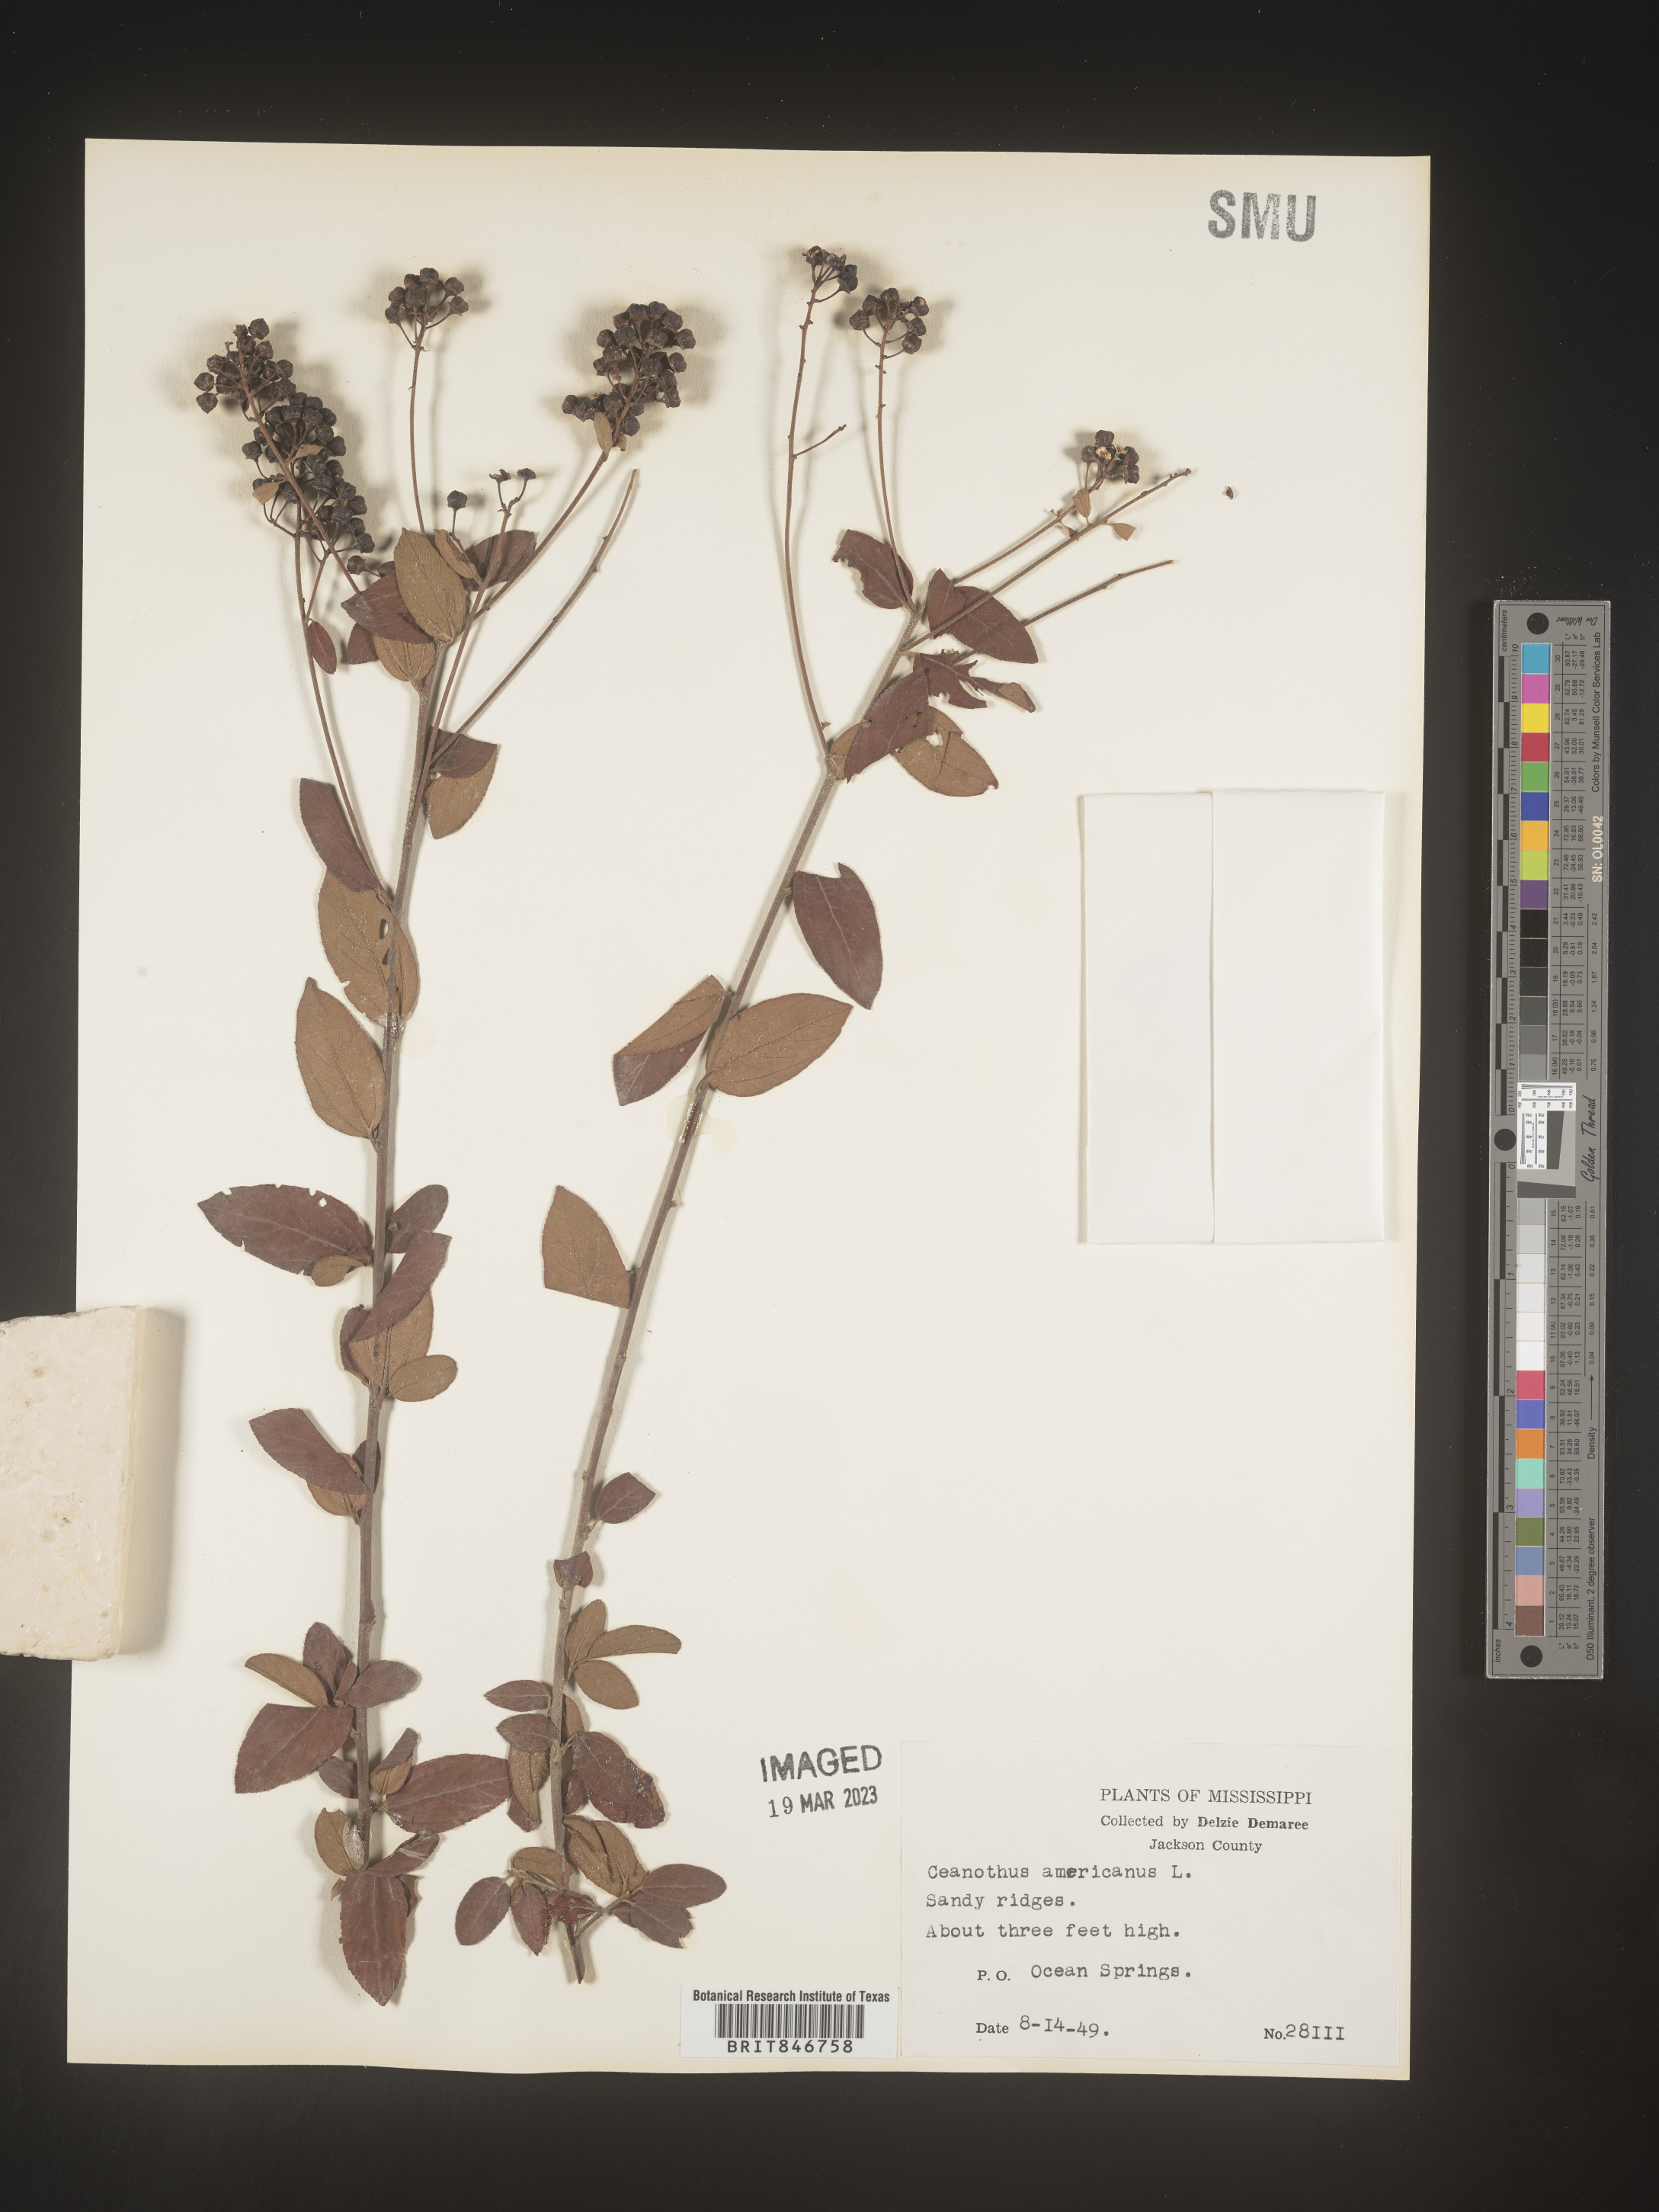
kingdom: Plantae
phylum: Tracheophyta
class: Magnoliopsida
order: Rosales
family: Rhamnaceae
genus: Ceanothus
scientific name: Ceanothus americanus
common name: Redroot
